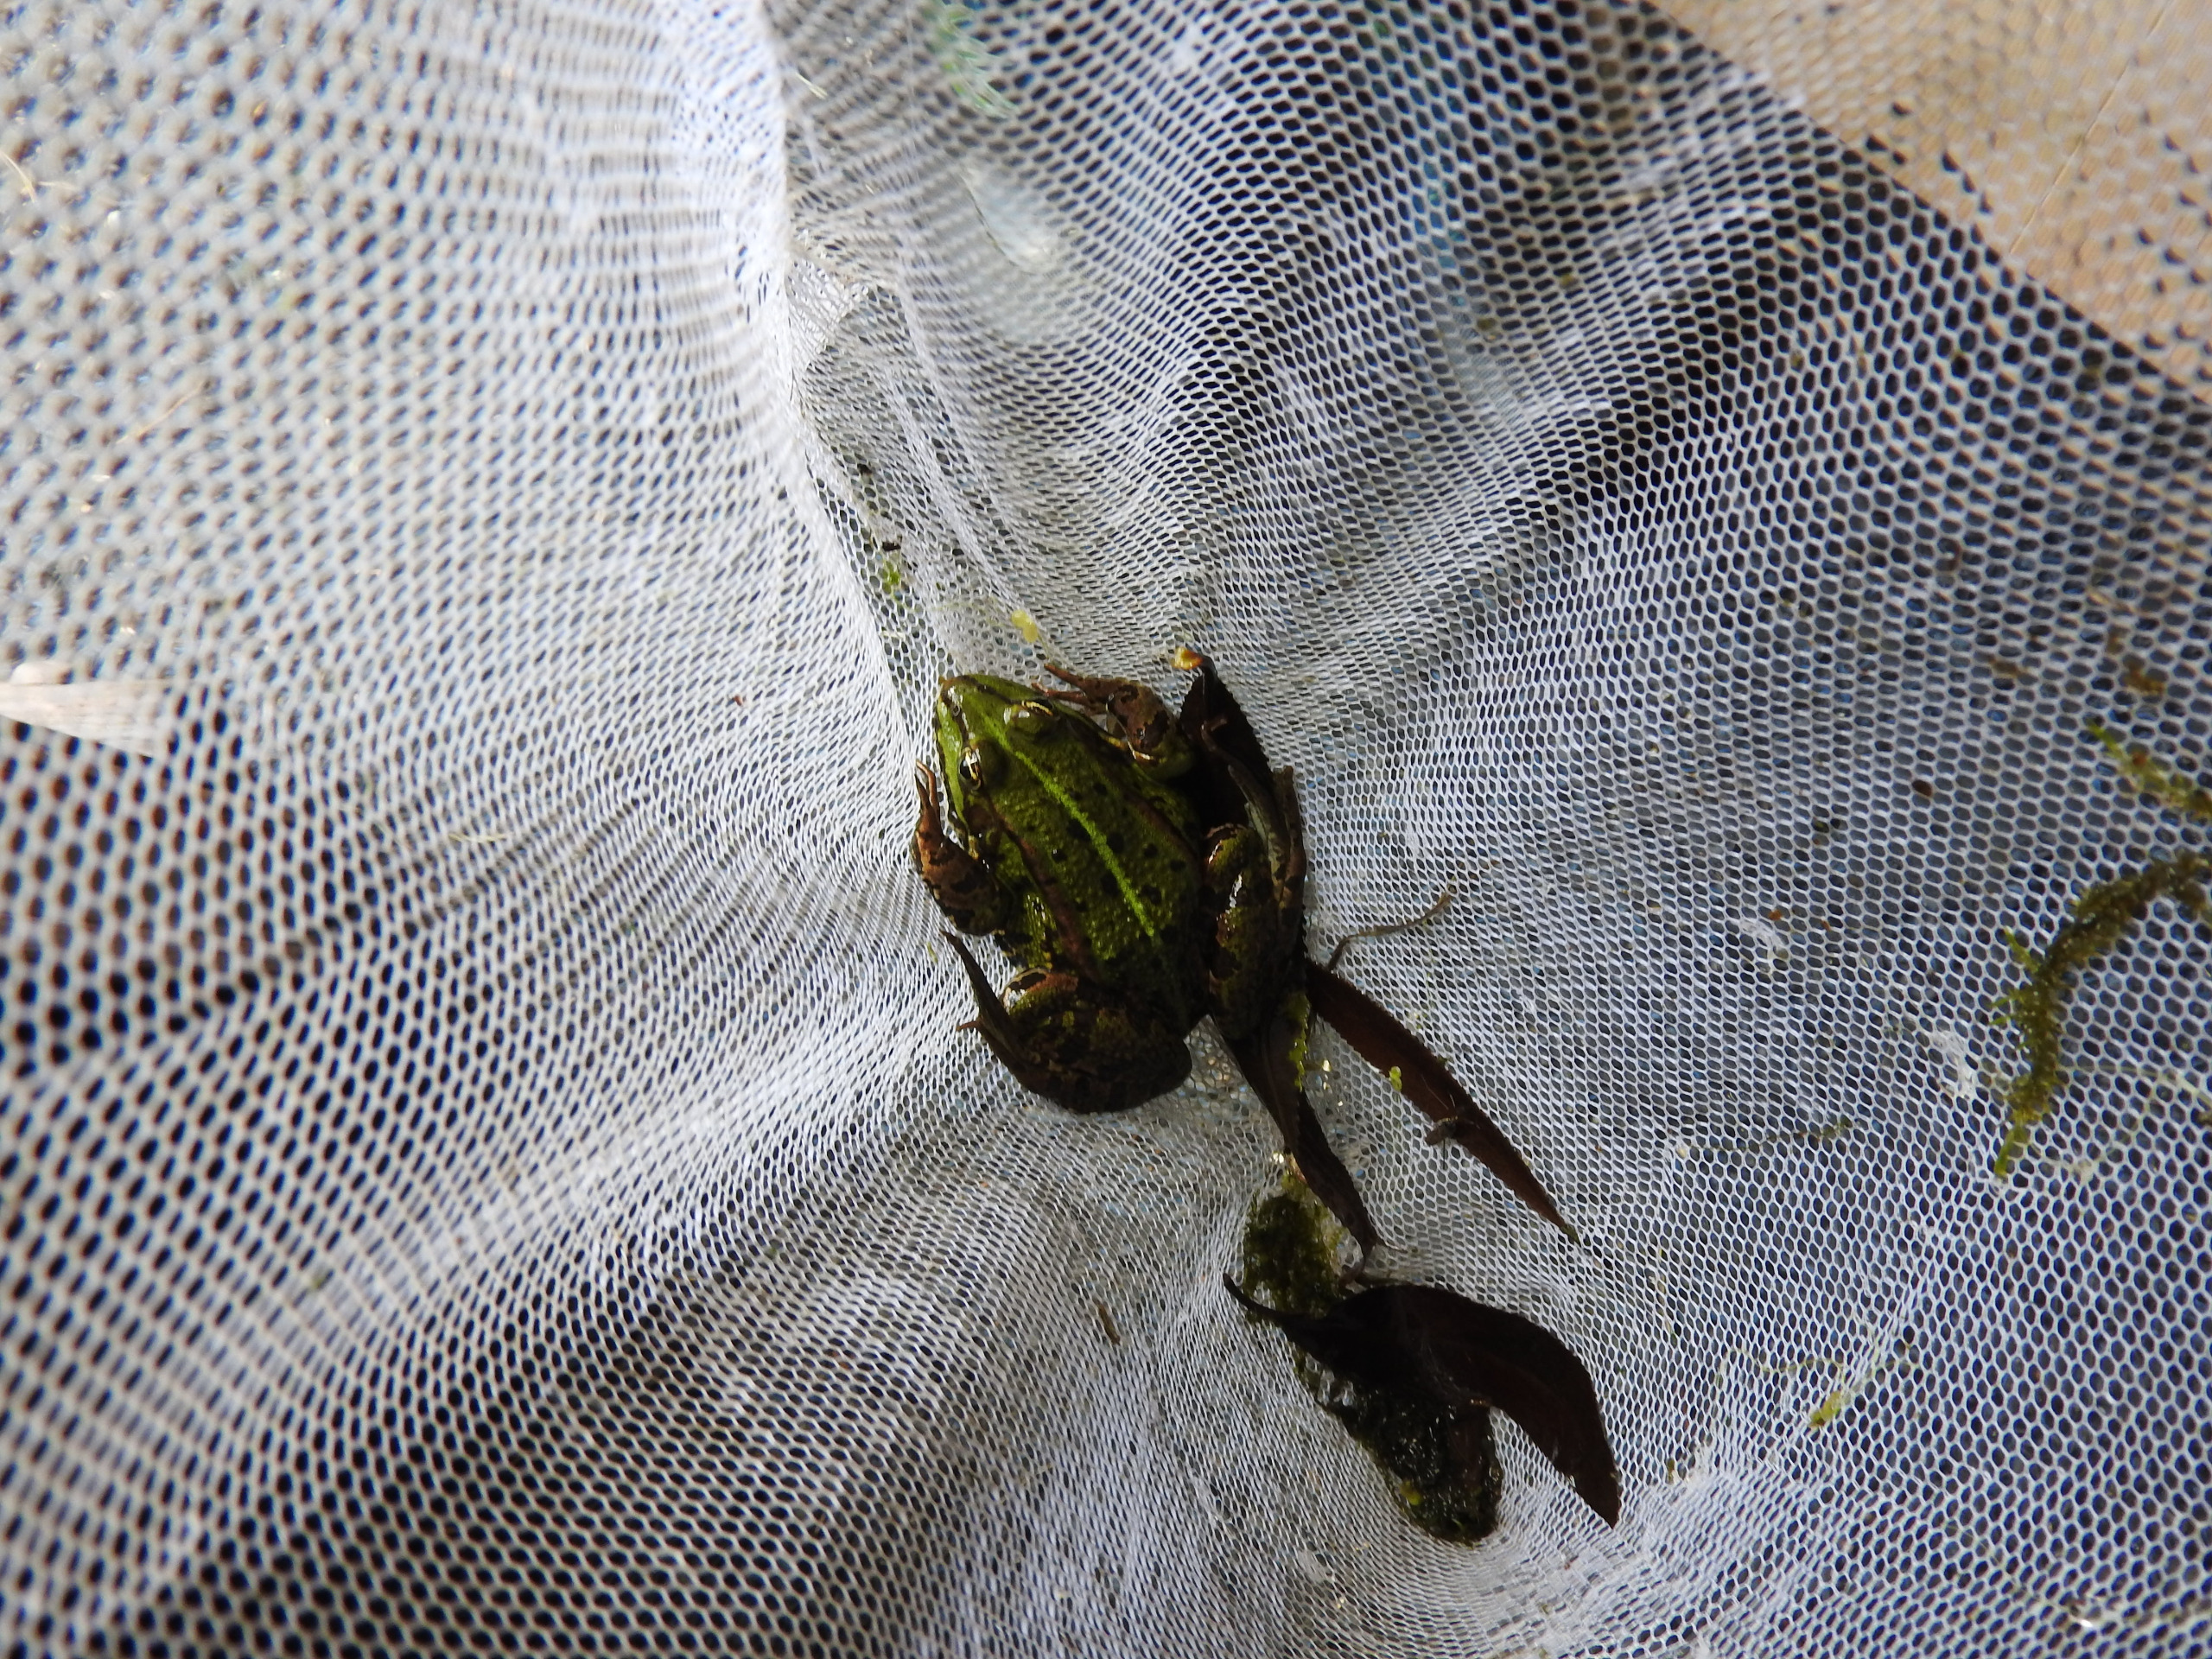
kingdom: Animalia
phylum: Chordata
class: Amphibia
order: Anura
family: Ranidae
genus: Pelophylax
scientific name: Pelophylax lessonae
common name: Grøn frø
